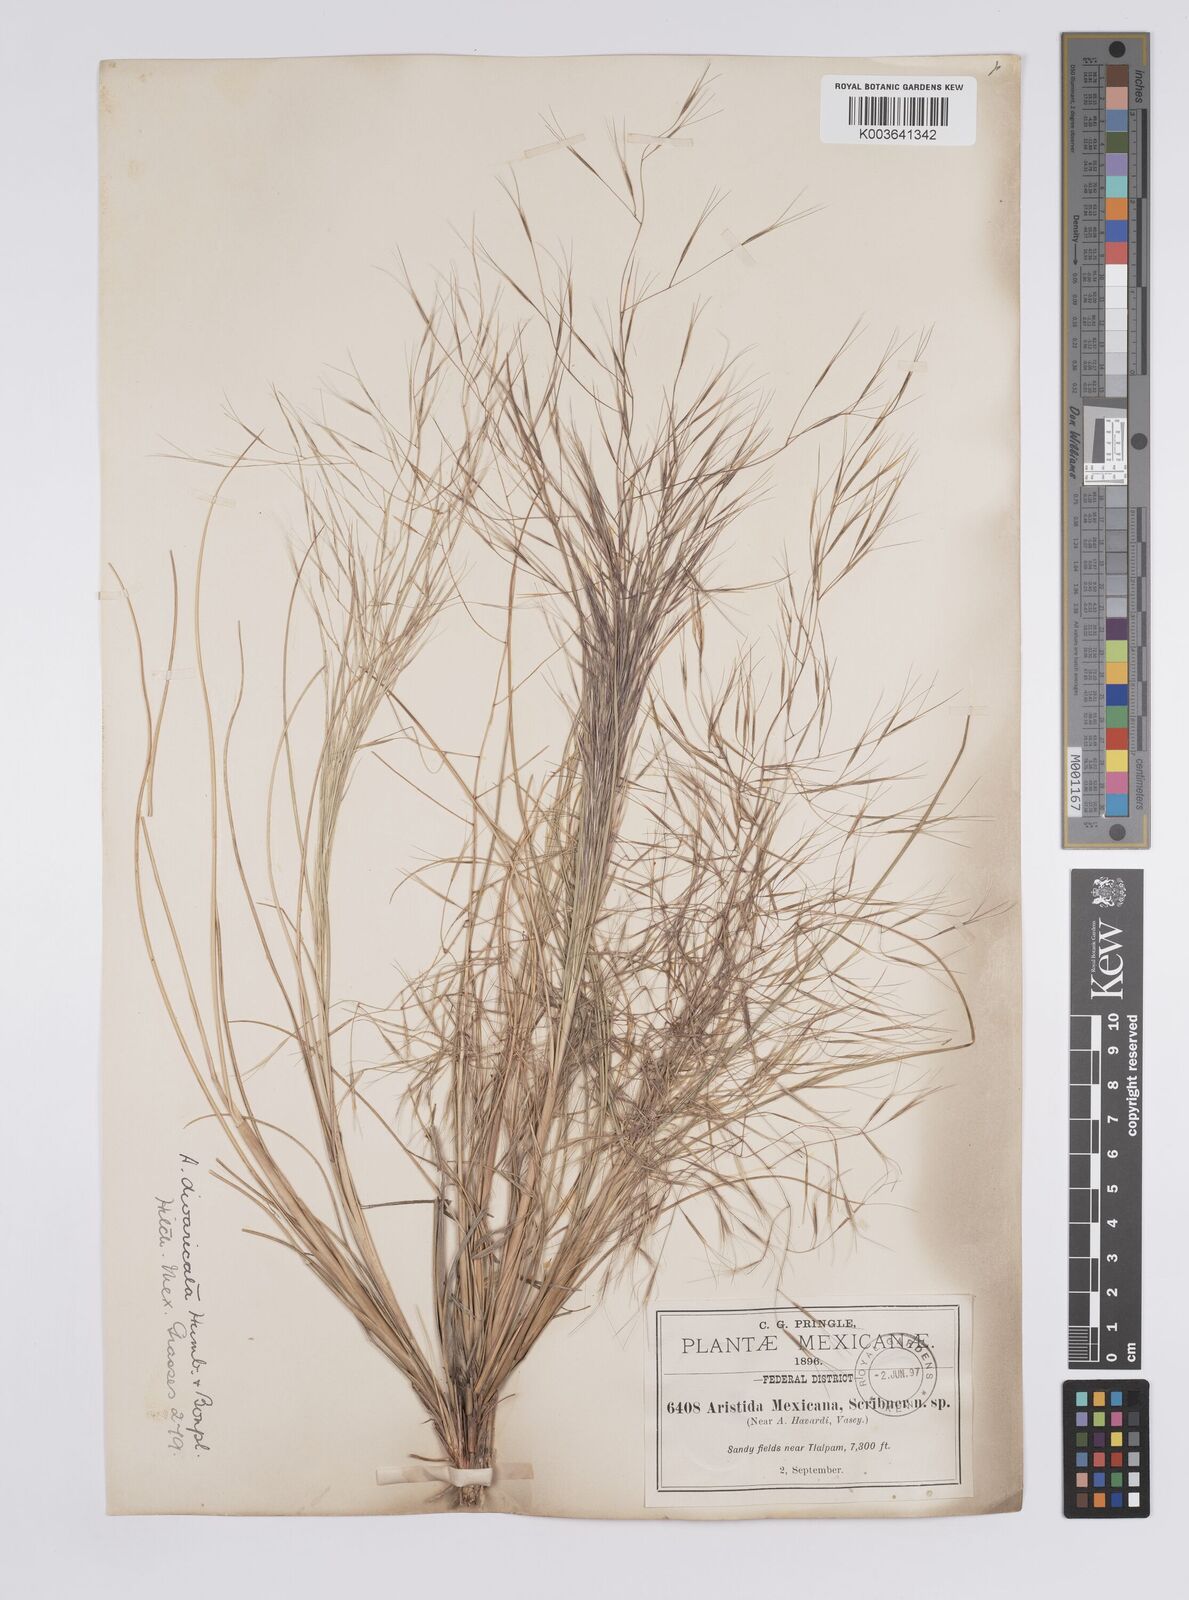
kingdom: Plantae
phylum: Tracheophyta
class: Liliopsida
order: Poales
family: Poaceae
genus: Aristida
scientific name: Aristida divaricata
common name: Poverty grass
